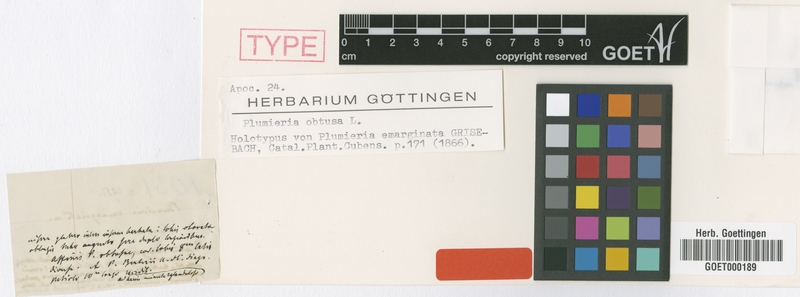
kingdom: Plantae
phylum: Tracheophyta
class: Magnoliopsida
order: Gentianales
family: Apocynaceae
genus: Plumeria
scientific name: Plumeria obtusa
